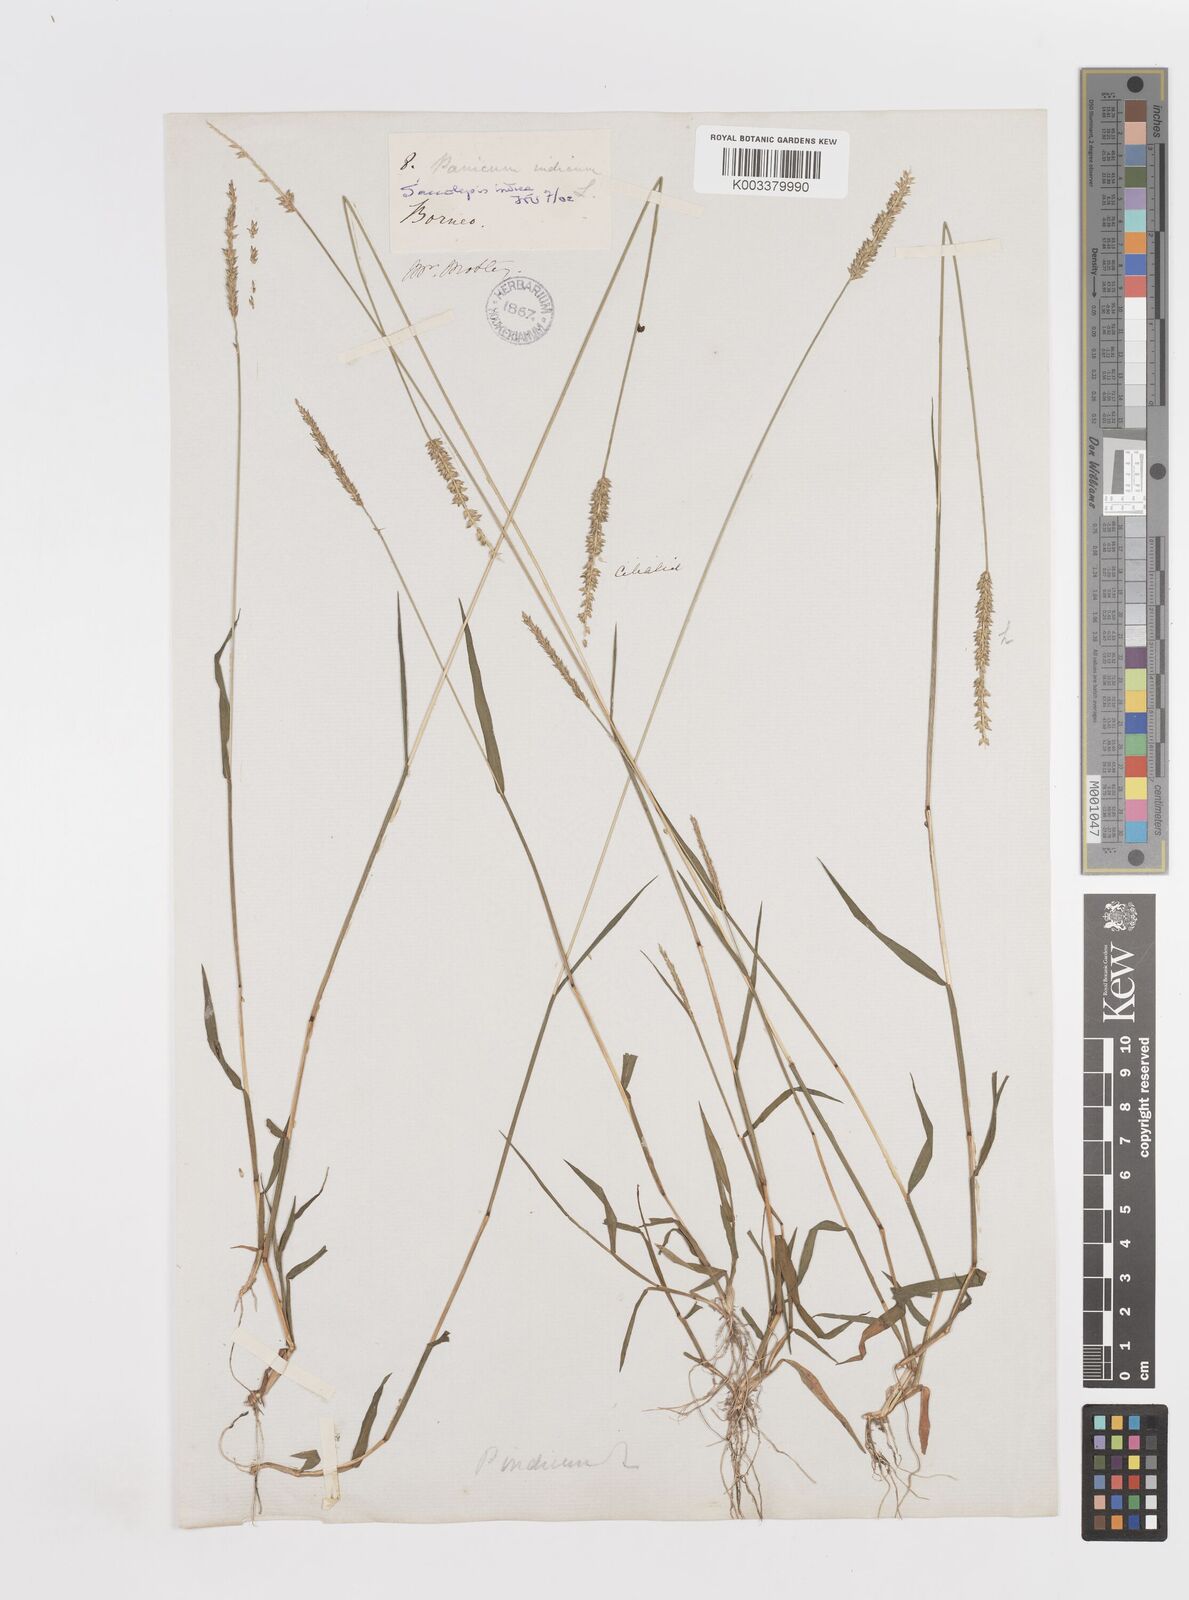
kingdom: Plantae
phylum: Tracheophyta
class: Liliopsida
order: Poales
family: Poaceae
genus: Sacciolepis
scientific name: Sacciolepis indica
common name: Glenwoodgrass
